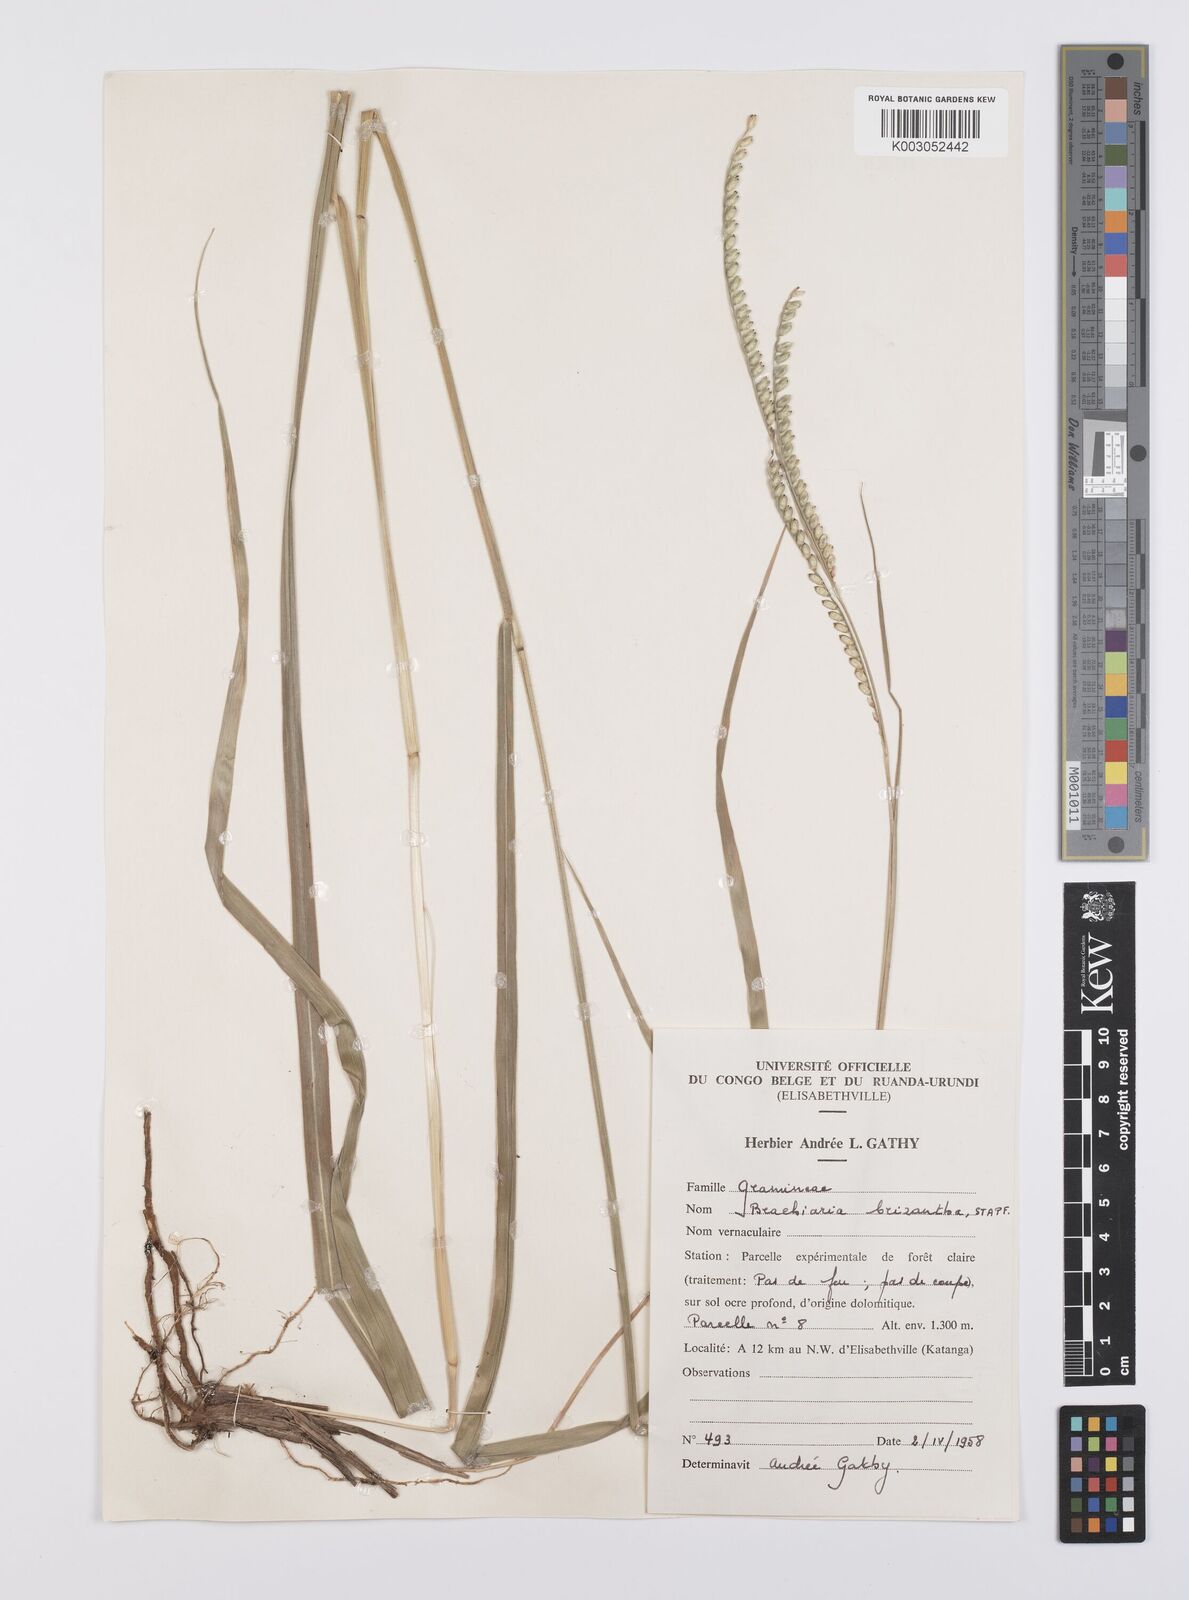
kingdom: Plantae
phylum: Tracheophyta
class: Liliopsida
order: Poales
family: Poaceae
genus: Urochloa
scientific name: Urochloa brizantha
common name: Palisade signalgrass
